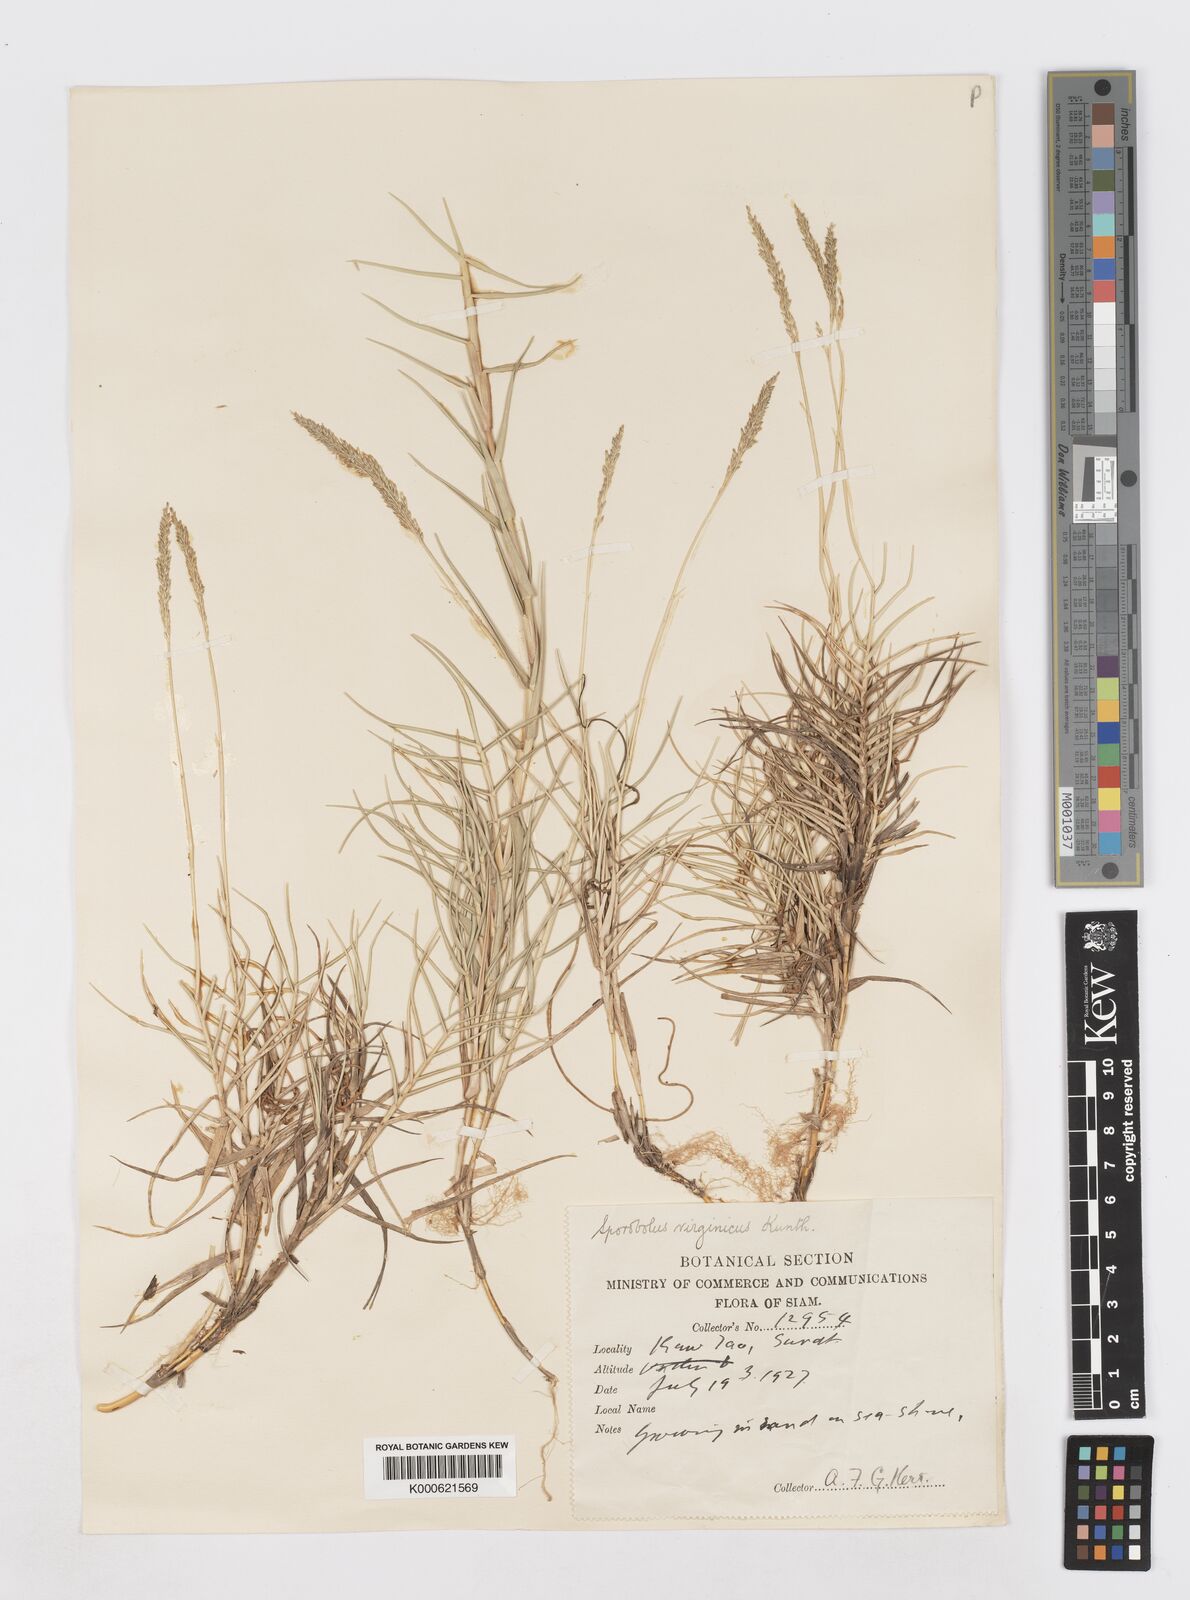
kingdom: Plantae
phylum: Tracheophyta
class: Liliopsida
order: Poales
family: Poaceae
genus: Sporobolus
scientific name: Sporobolus virginicus
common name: Beach dropseed
